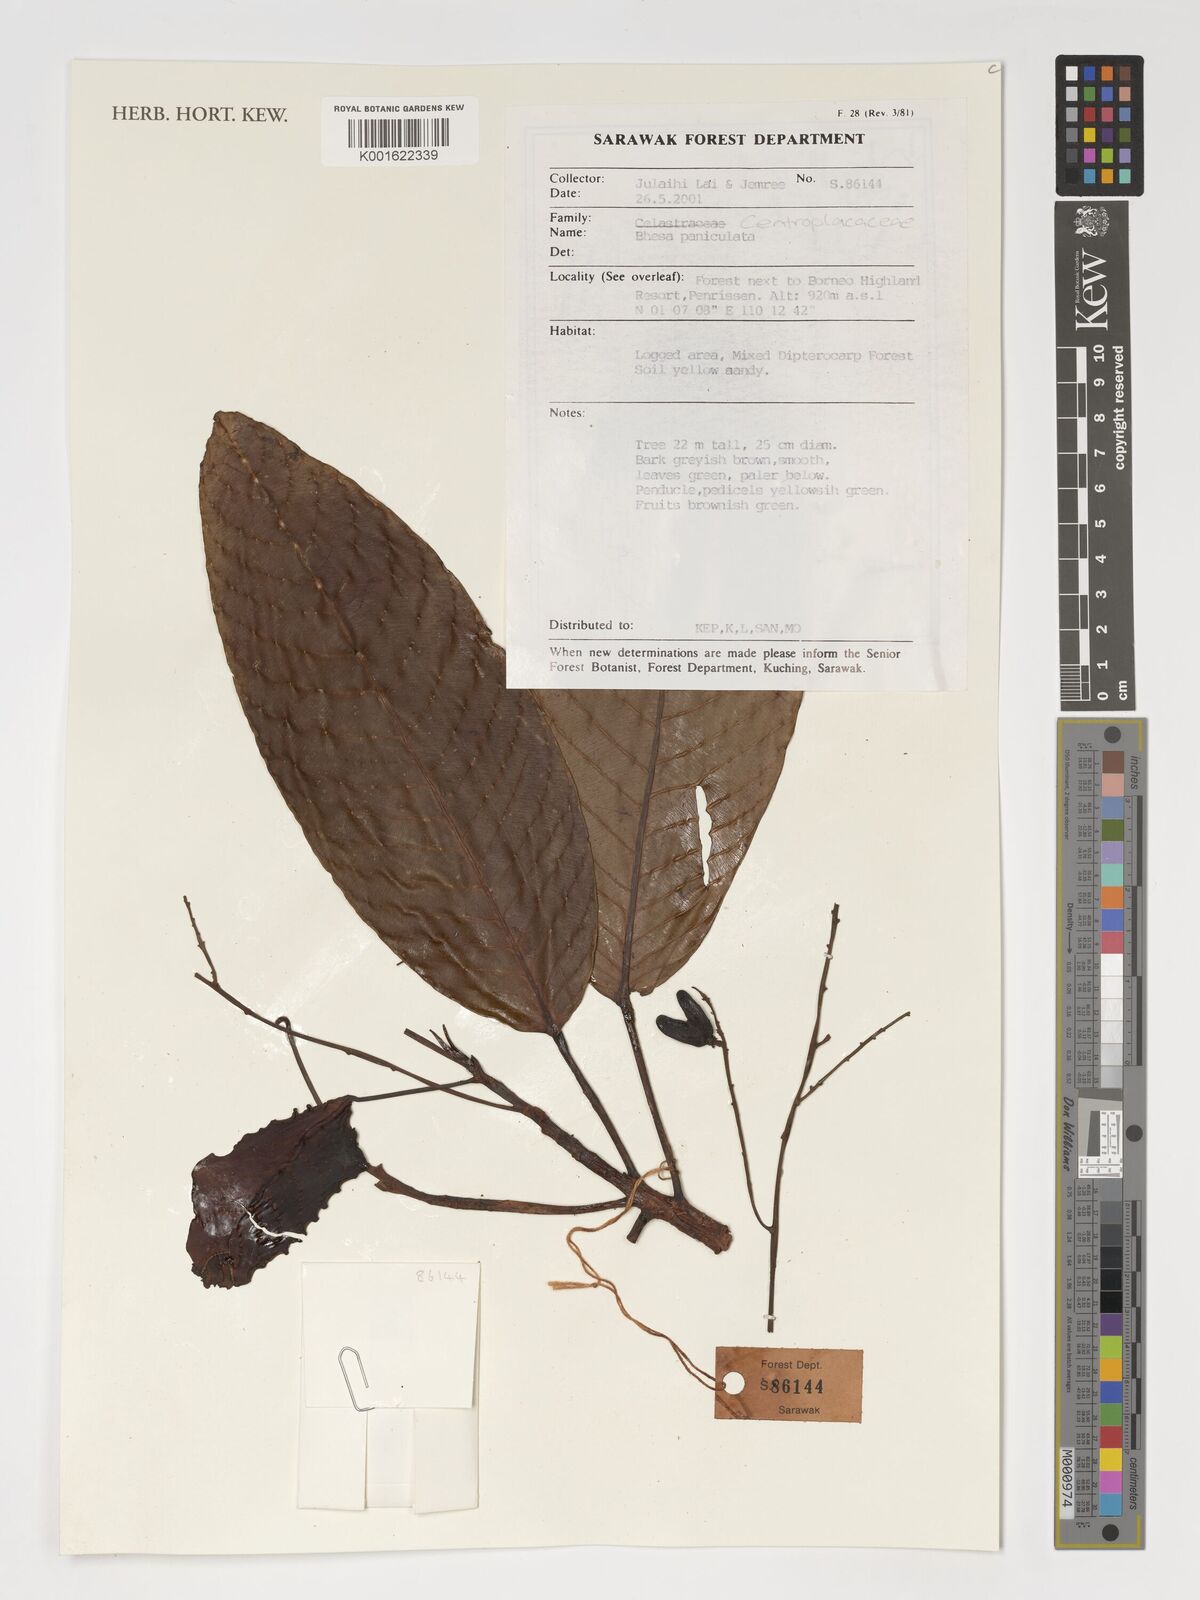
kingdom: Plantae
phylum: Tracheophyta
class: Magnoliopsida
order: Malpighiales
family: Centroplacaceae
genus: Bhesa
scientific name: Bhesa paniculata
